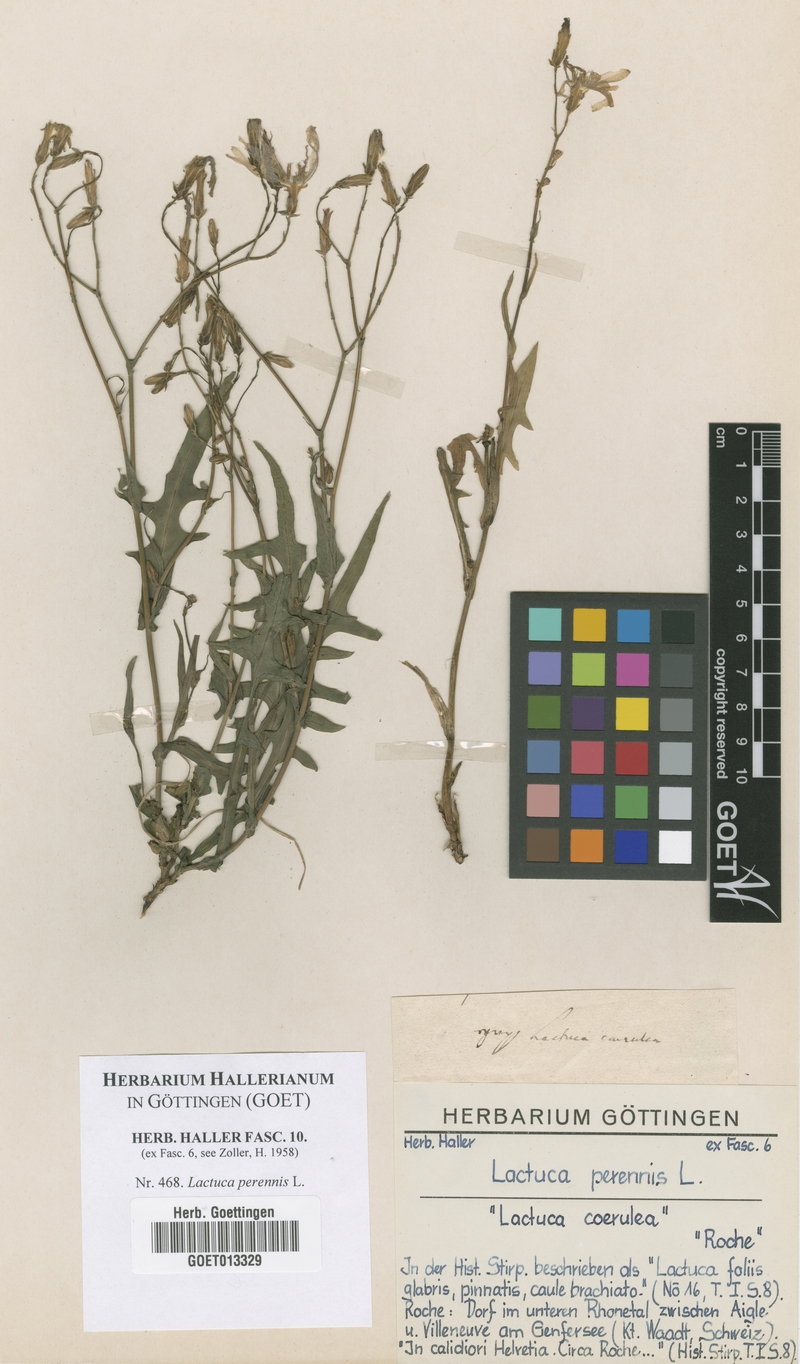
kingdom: Plantae
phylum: Tracheophyta
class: Magnoliopsida
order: Asterales
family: Asteraceae
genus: Lactuca
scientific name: Lactuca perennis
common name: Mountain lettuce
